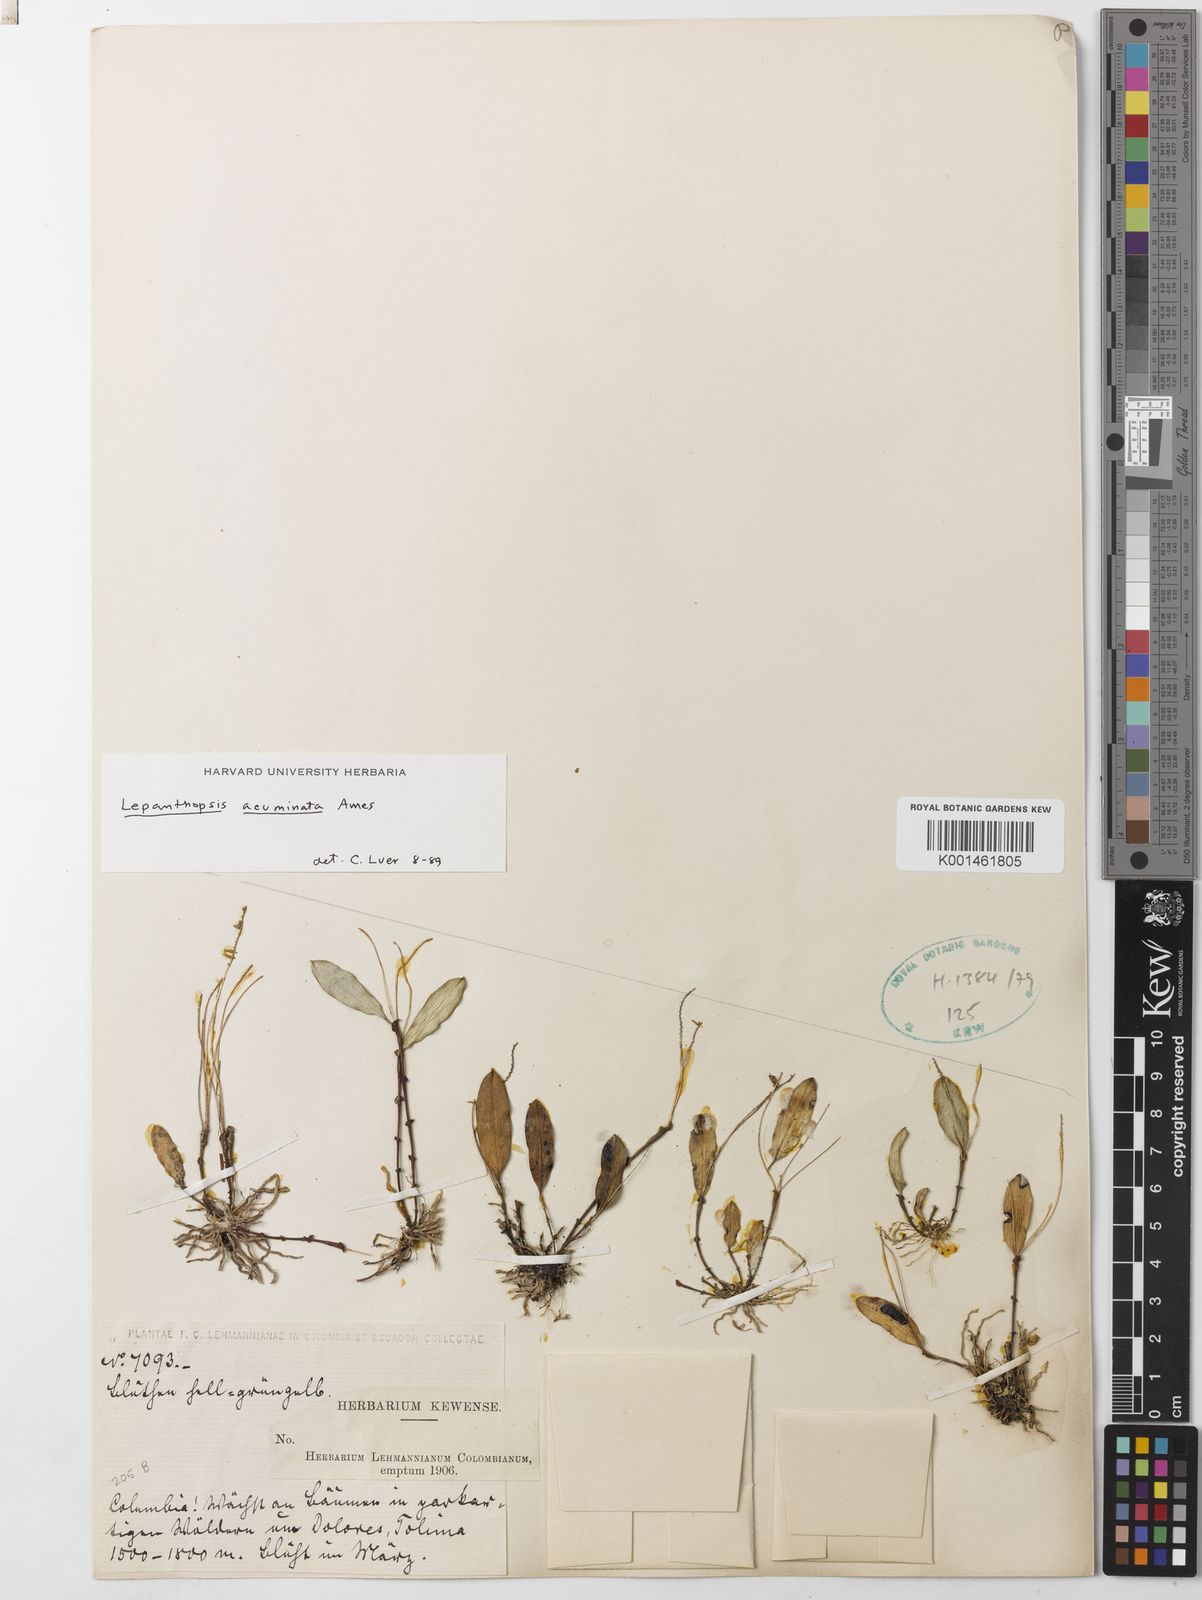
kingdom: Plantae
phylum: Tracheophyta
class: Liliopsida
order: Asparagales
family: Orchidaceae
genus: Lepanthopsis
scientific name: Lepanthopsis acuminata
